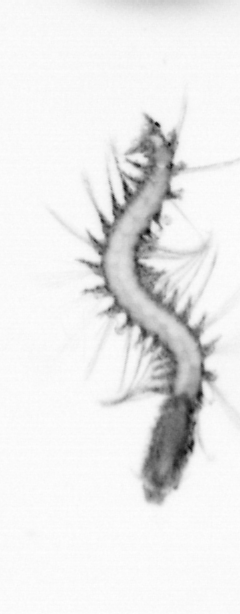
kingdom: Animalia
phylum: Annelida
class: Polychaeta
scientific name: Polychaeta
